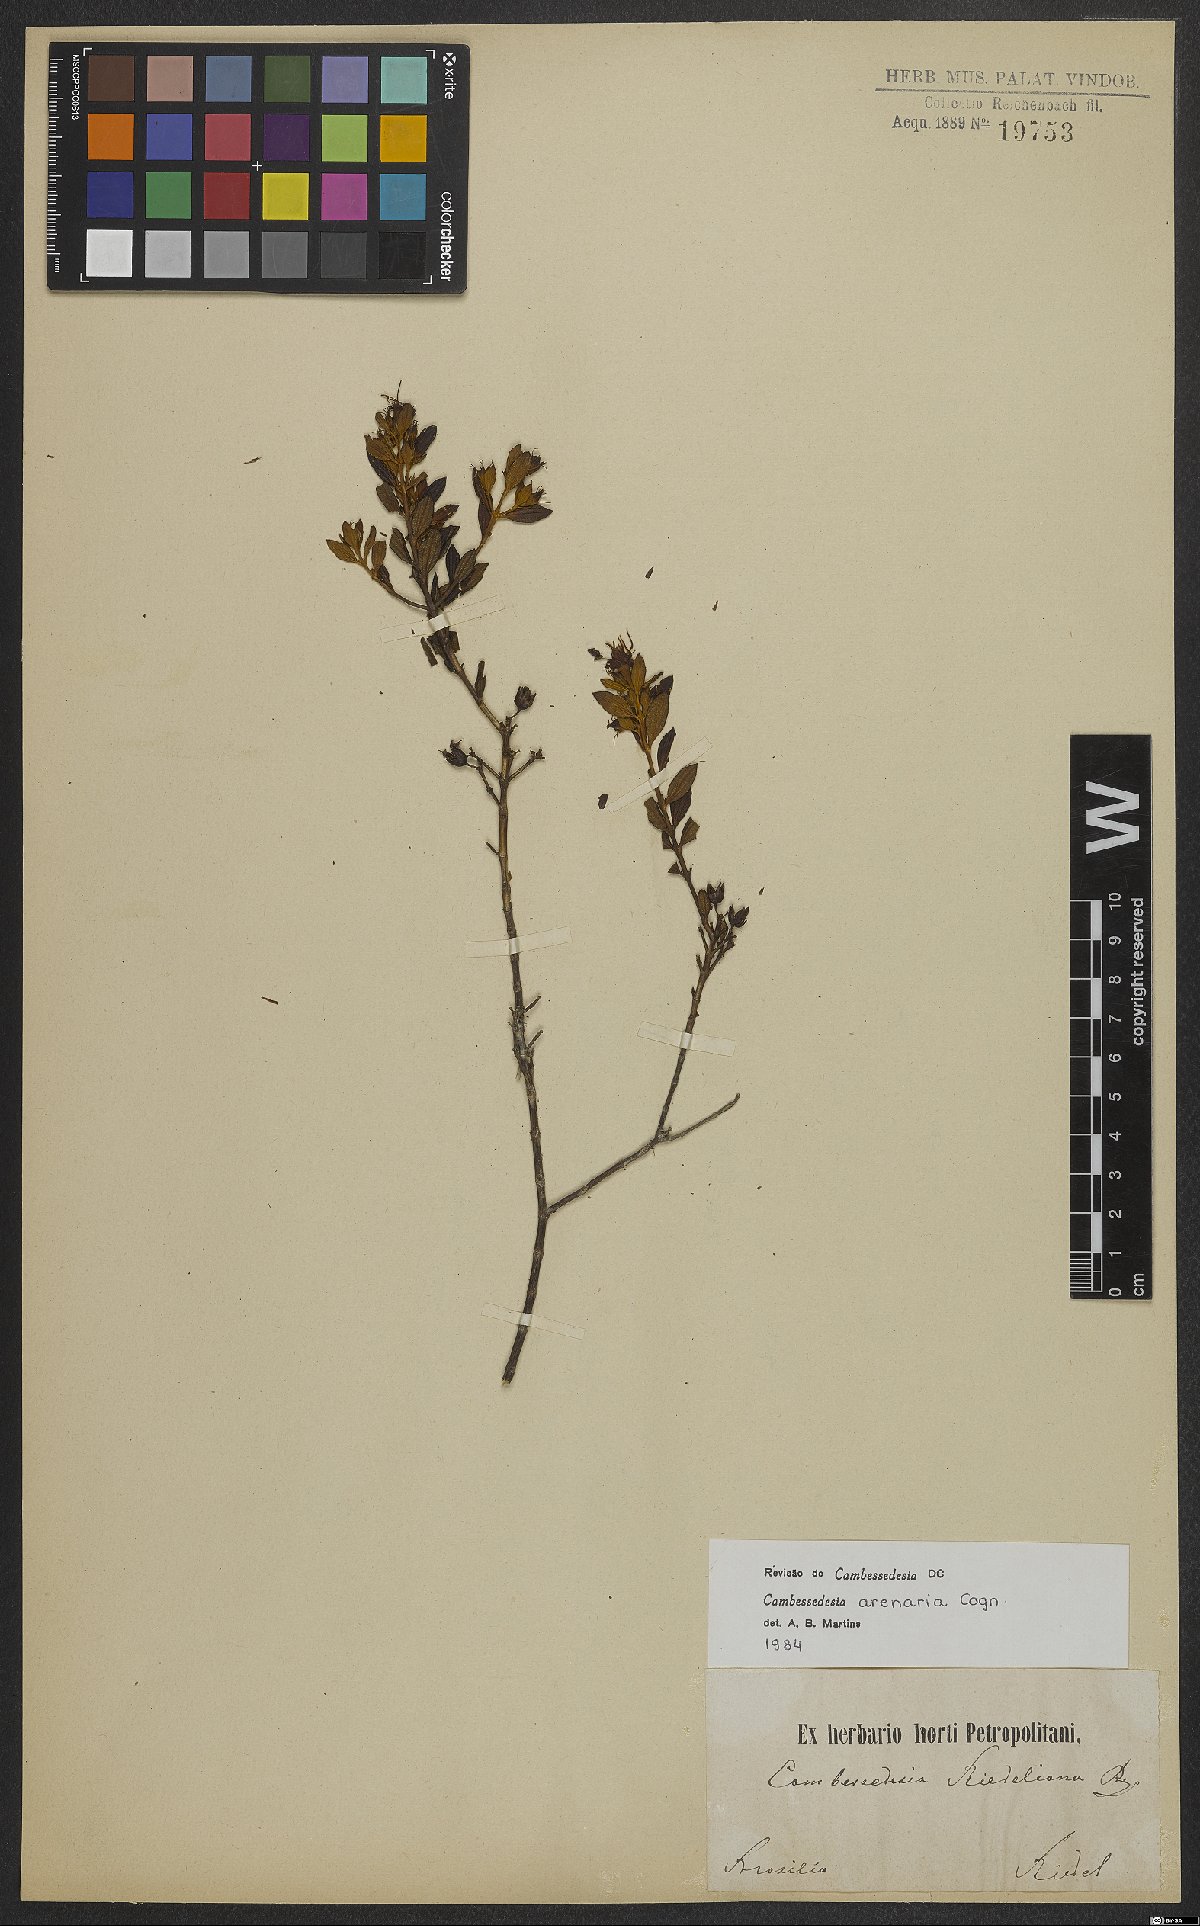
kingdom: Plantae
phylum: Tracheophyta
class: Magnoliopsida
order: Myrtales
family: Melastomataceae
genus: Cambessedesia
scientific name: Cambessedesia arenaria
